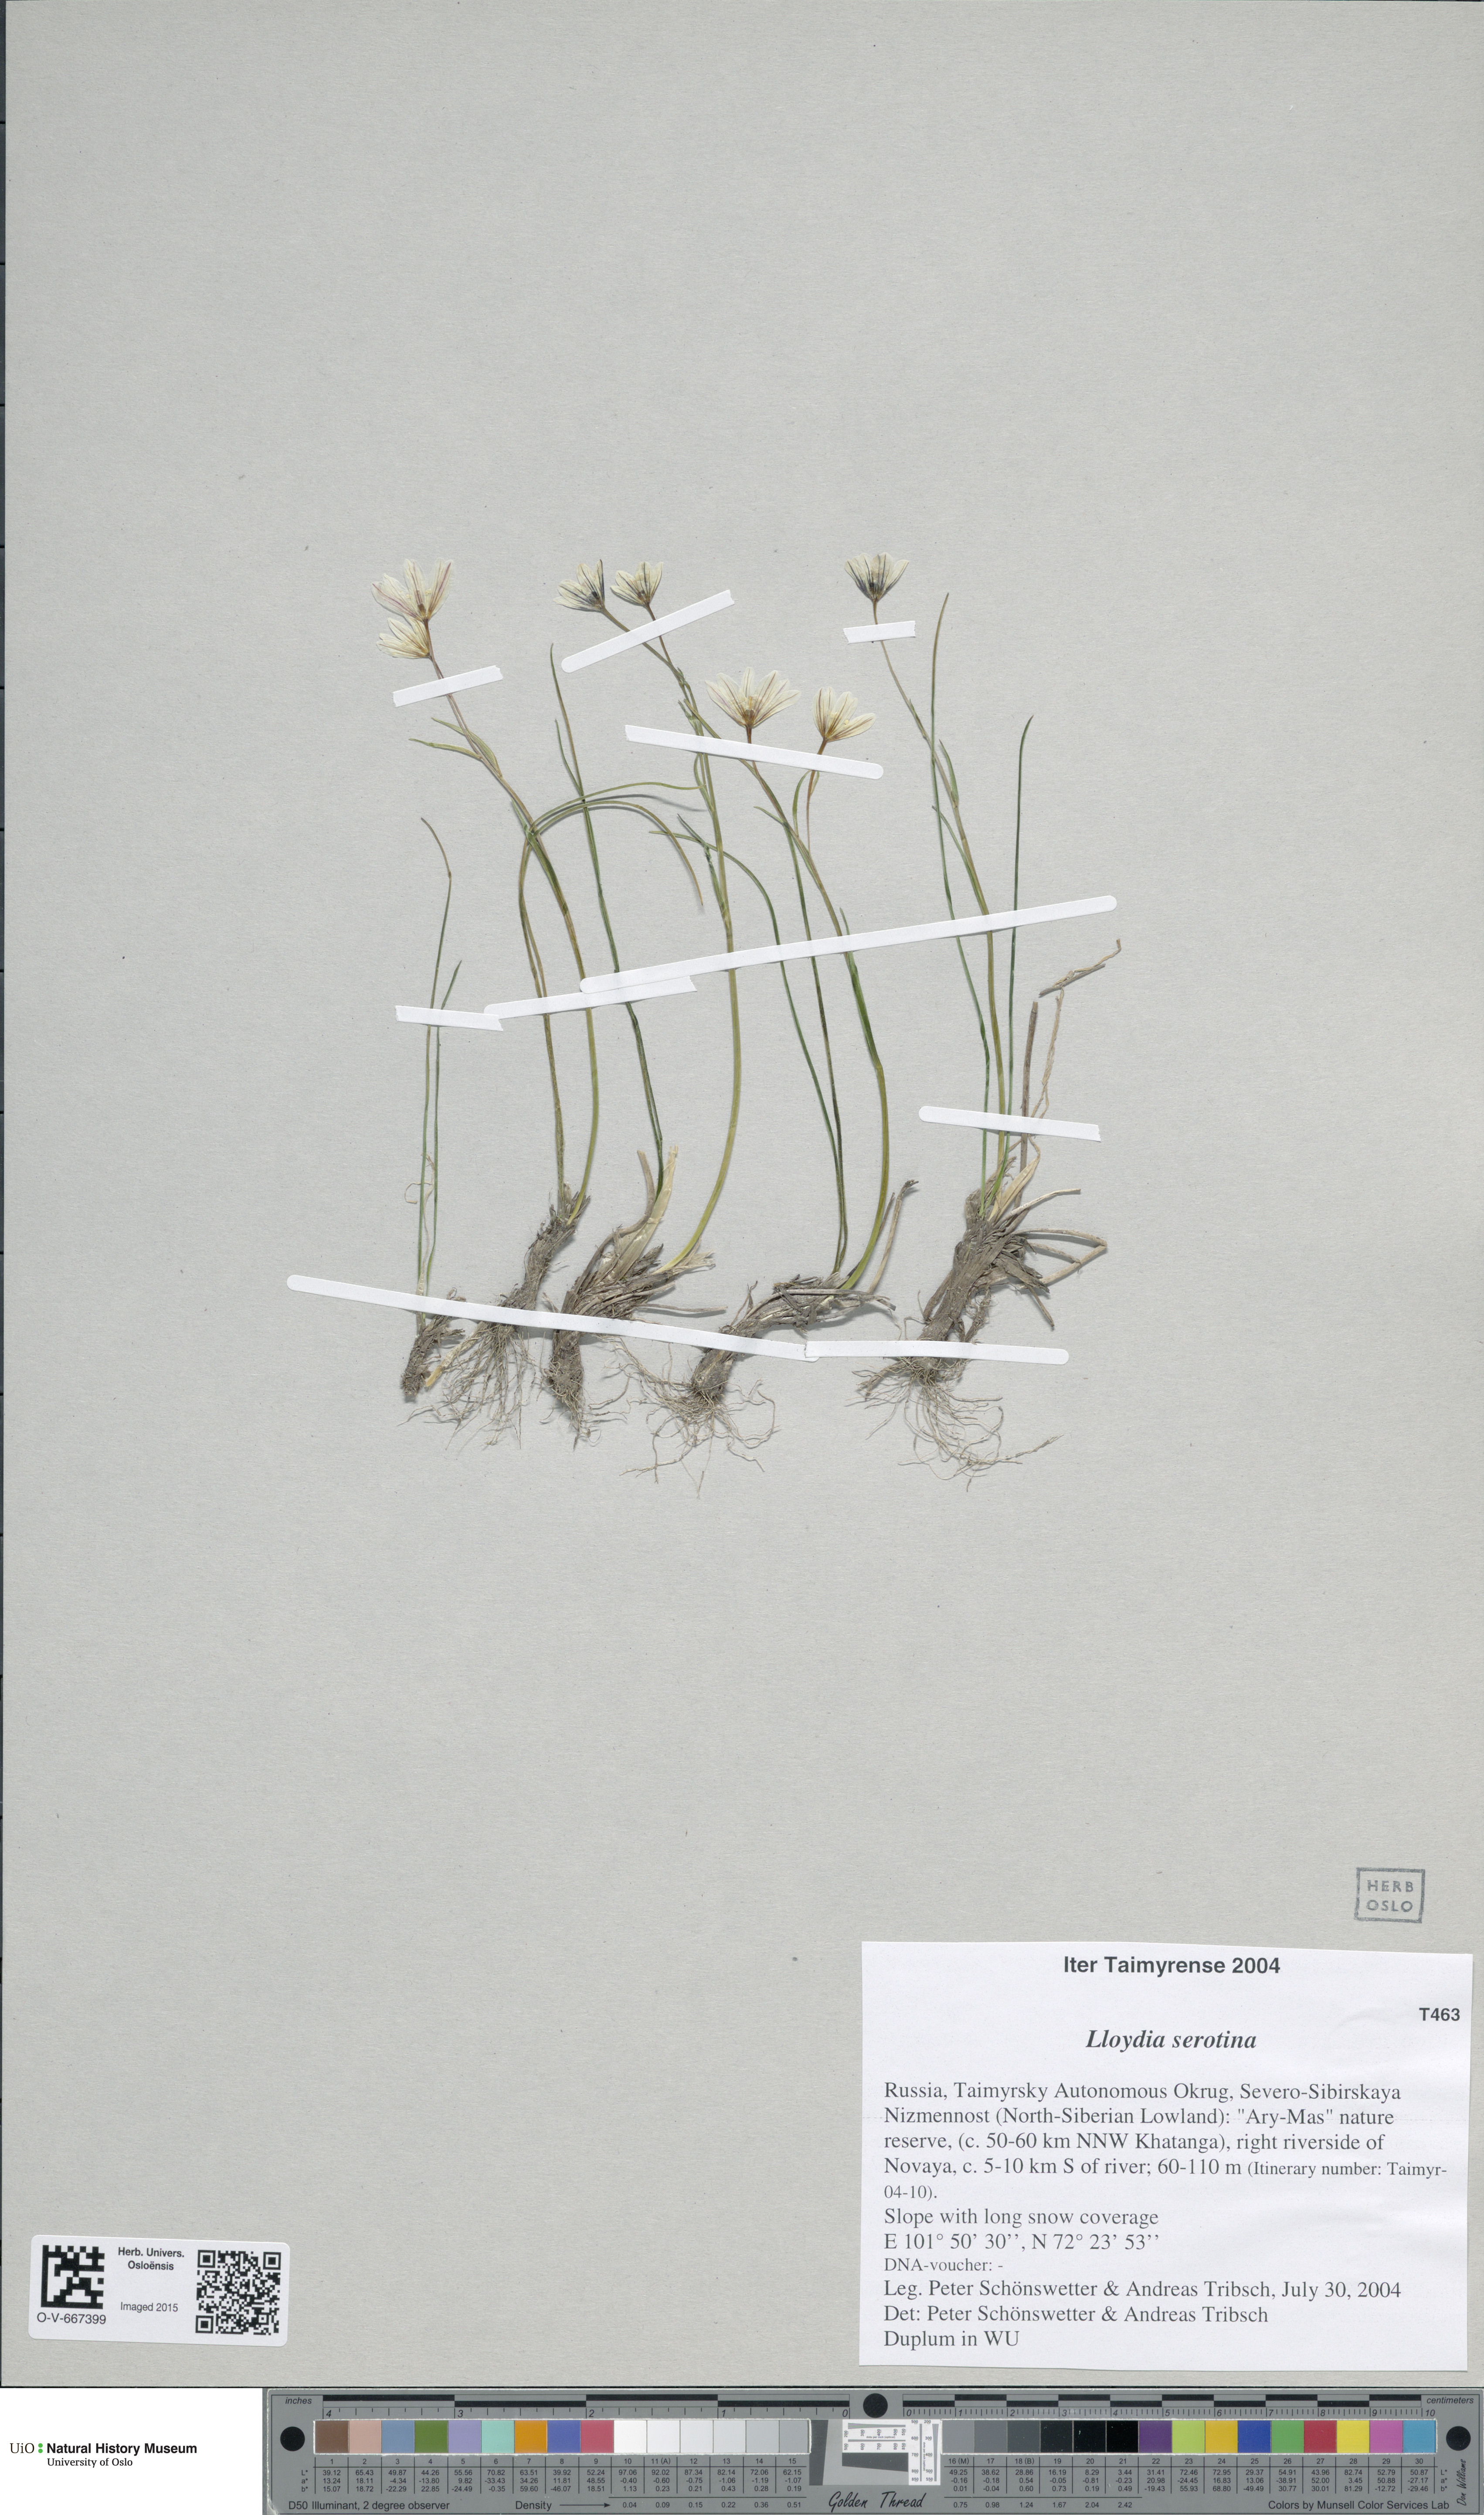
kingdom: Plantae
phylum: Tracheophyta
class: Liliopsida
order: Liliales
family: Liliaceae
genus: Gagea
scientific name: Gagea serotina
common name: Snowdon lily
